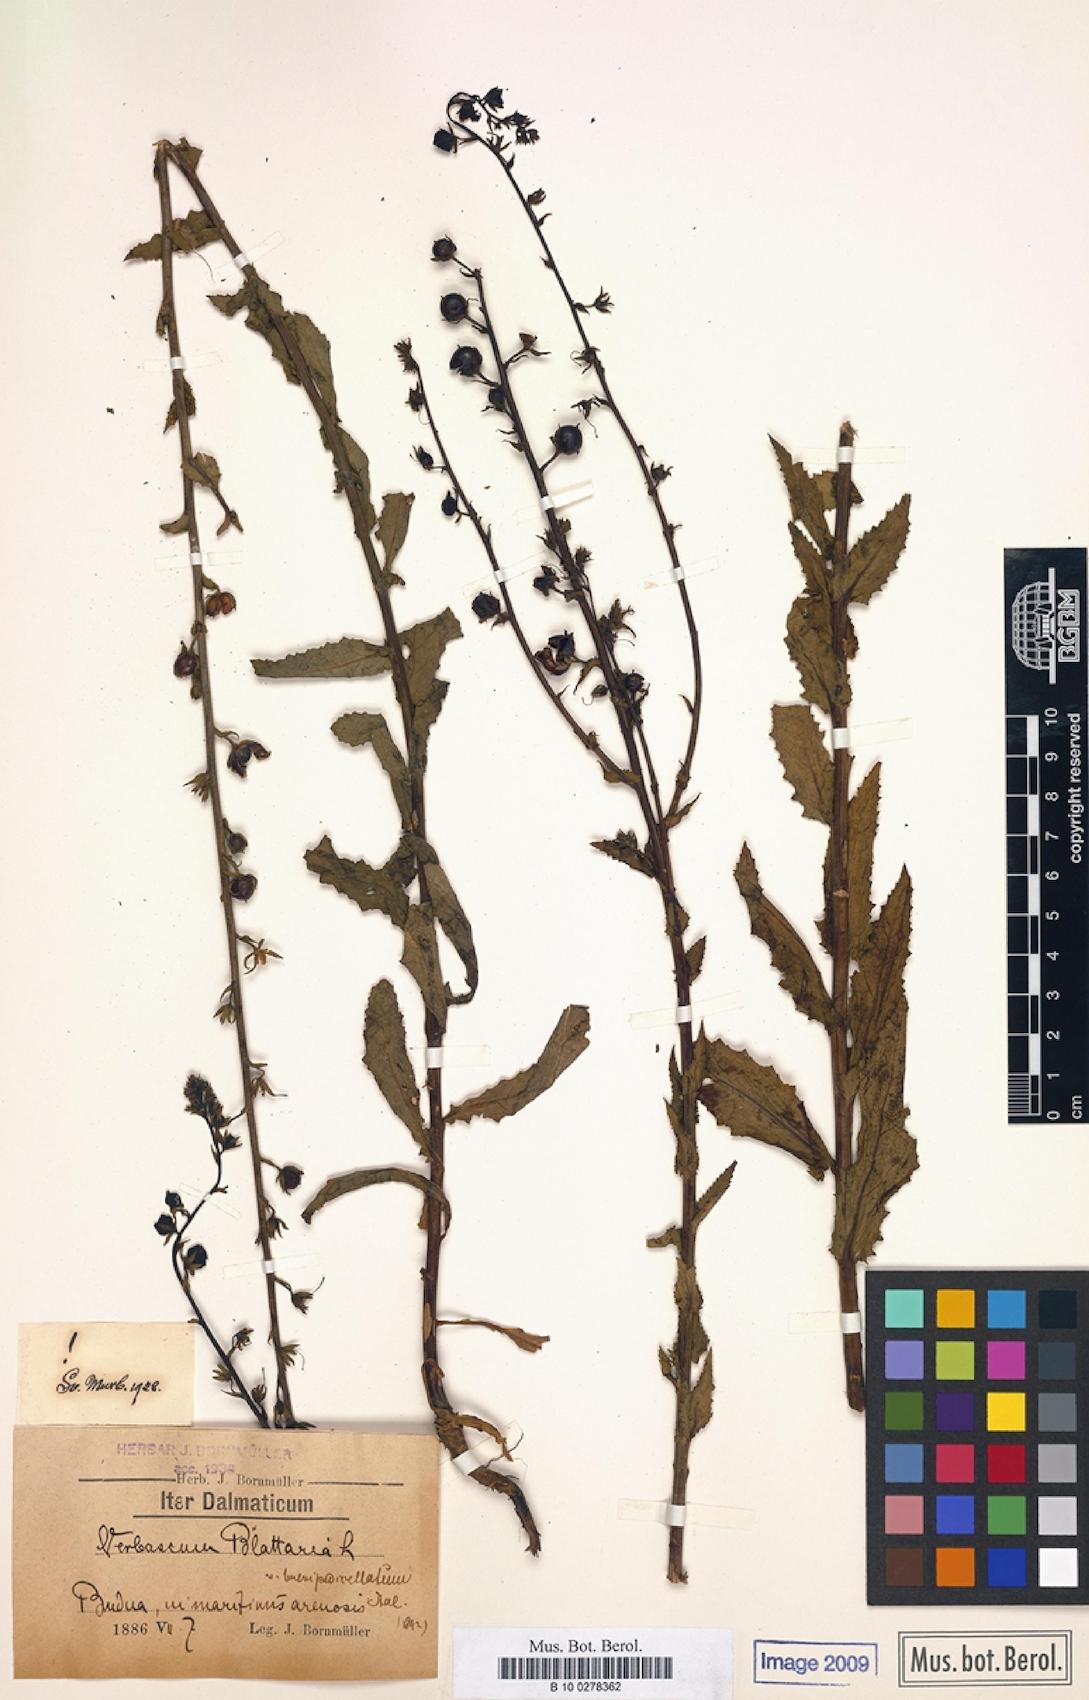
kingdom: Plantae
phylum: Tracheophyta
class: Magnoliopsida
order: Lamiales
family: Scrophulariaceae
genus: Verbascum
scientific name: Verbascum blattaria
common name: Moth mullein
